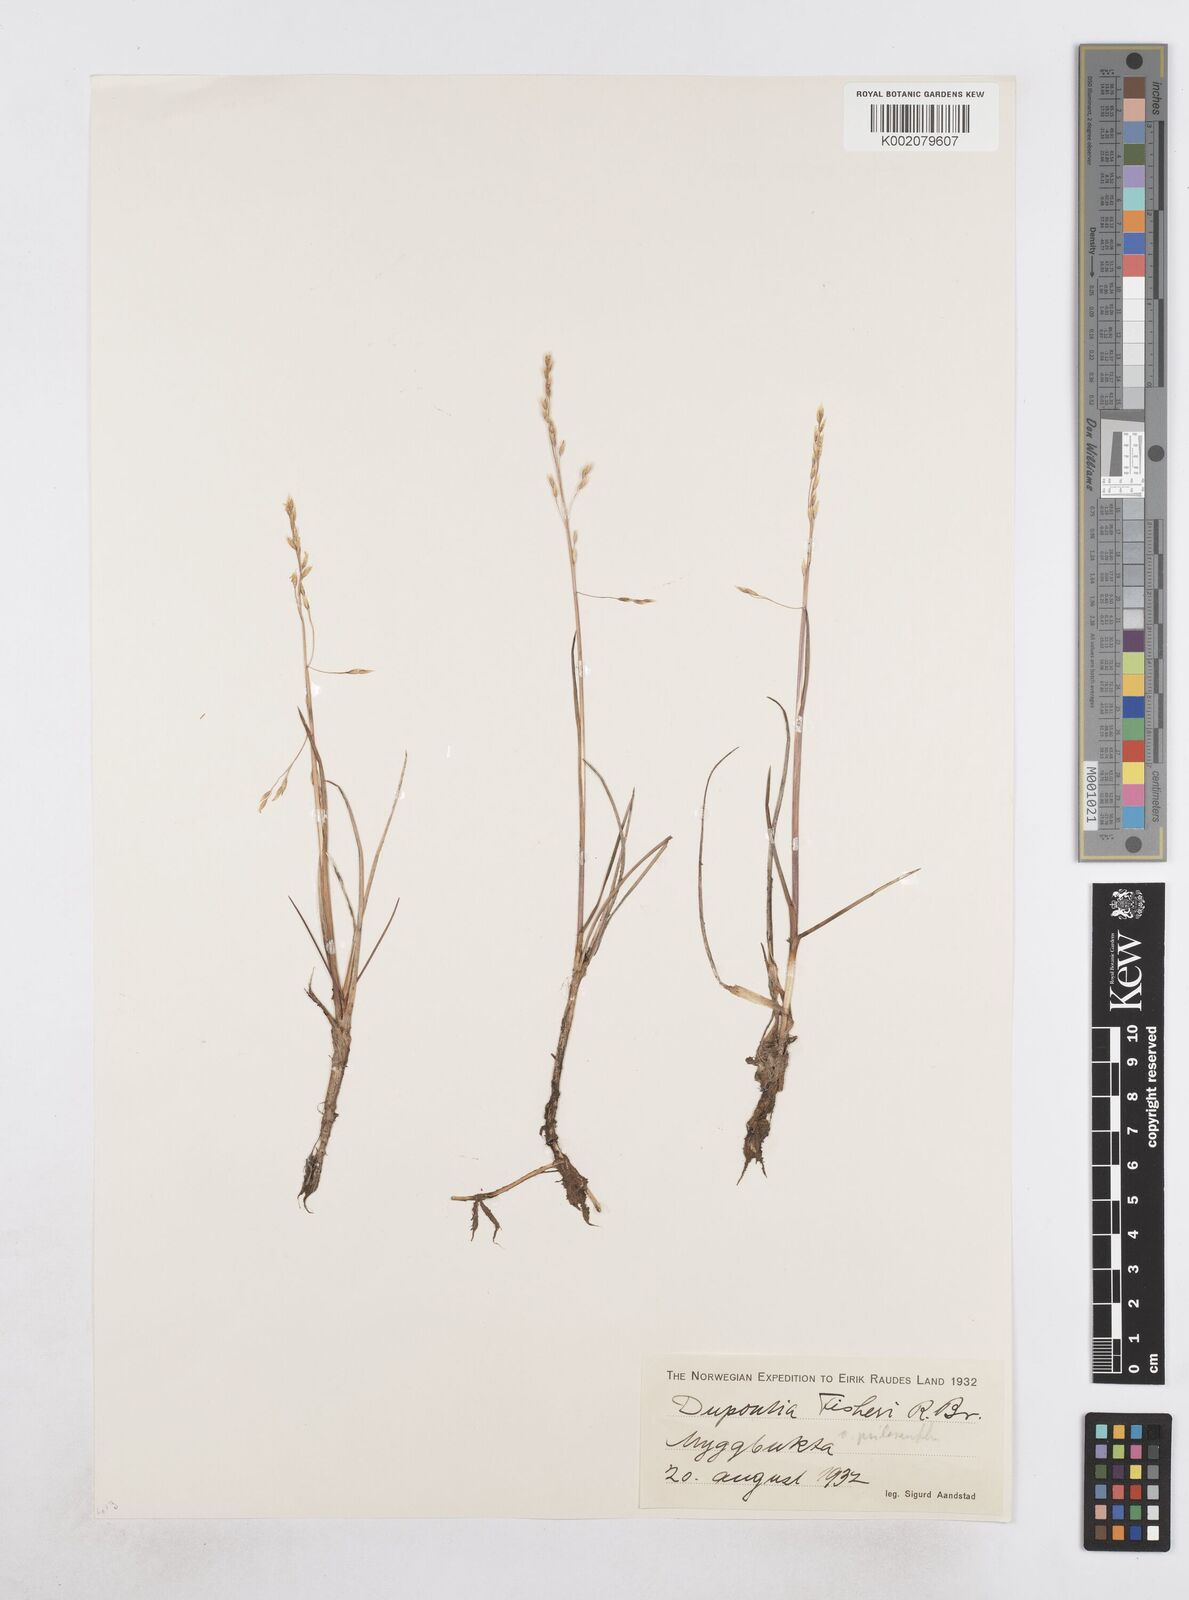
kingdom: Plantae
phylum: Tracheophyta
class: Liliopsida
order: Poales
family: Poaceae
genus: Dupontia
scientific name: Dupontia fisheri
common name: Tundra grass
